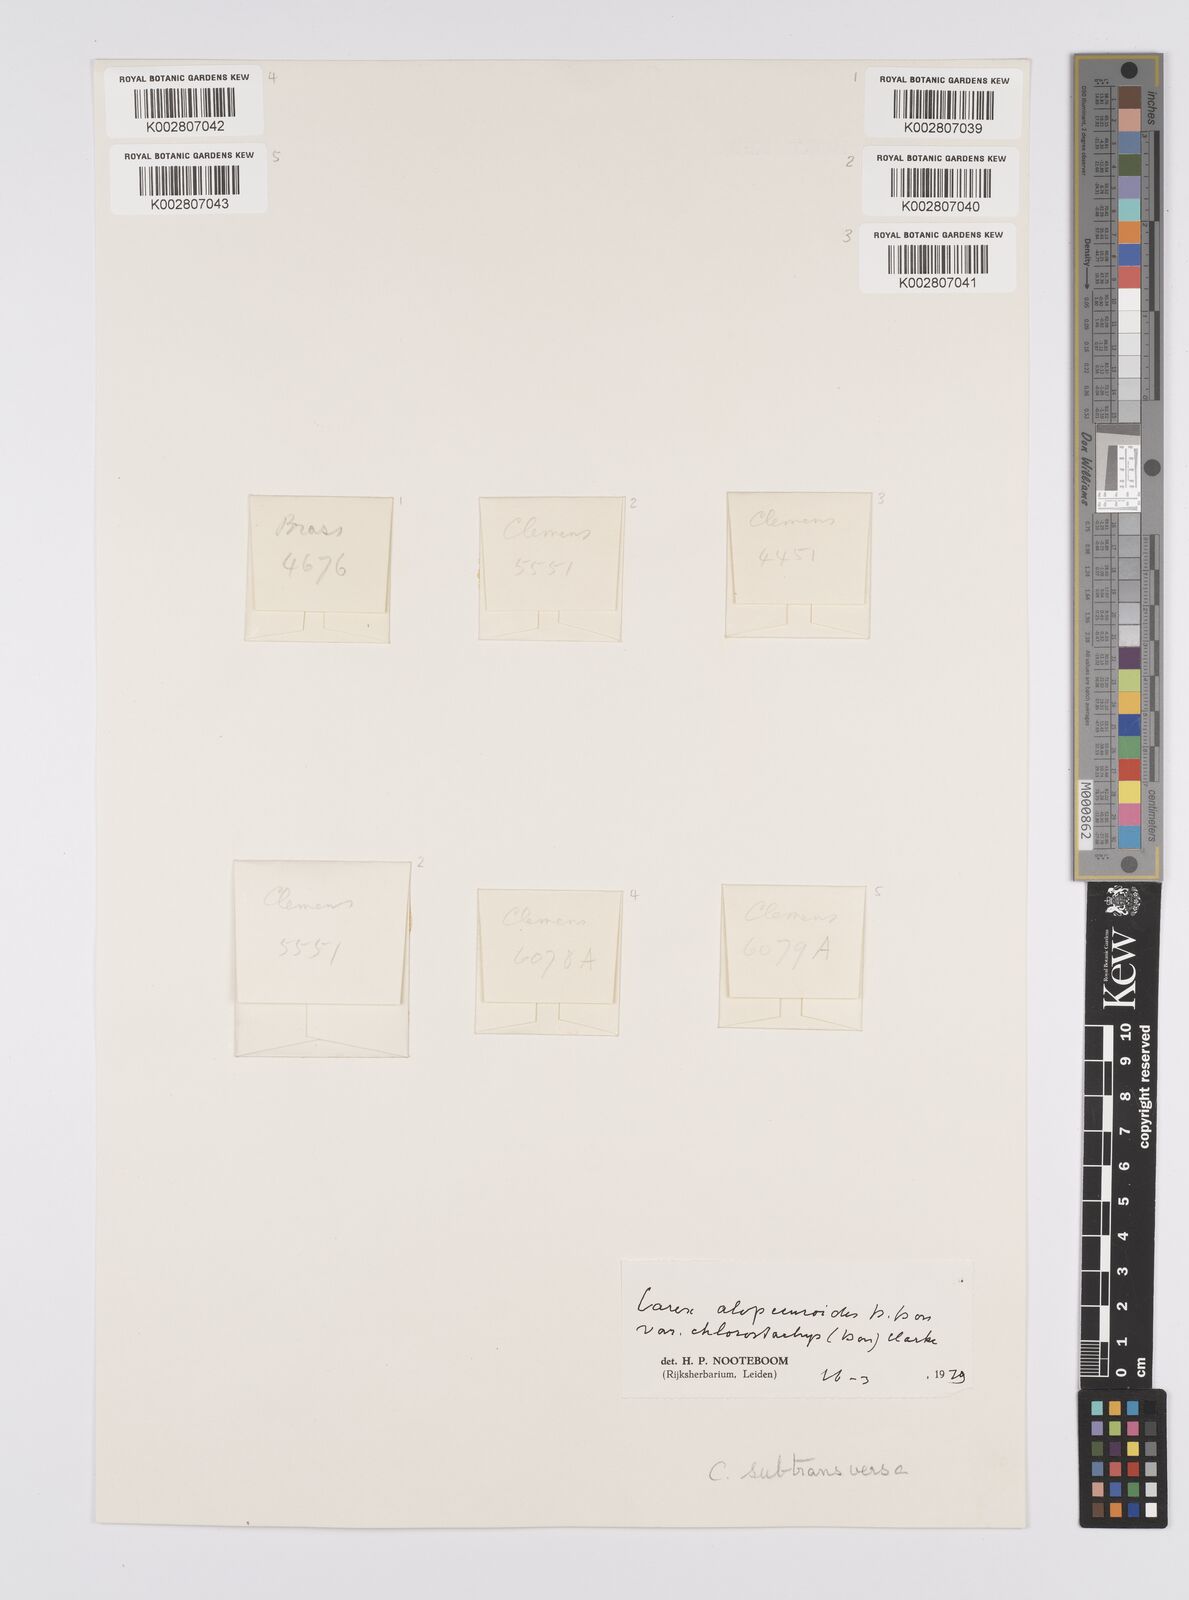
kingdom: Plantae
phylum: Tracheophyta
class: Liliopsida
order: Poales
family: Cyperaceae
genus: Carex
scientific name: Carex alopecuroides
